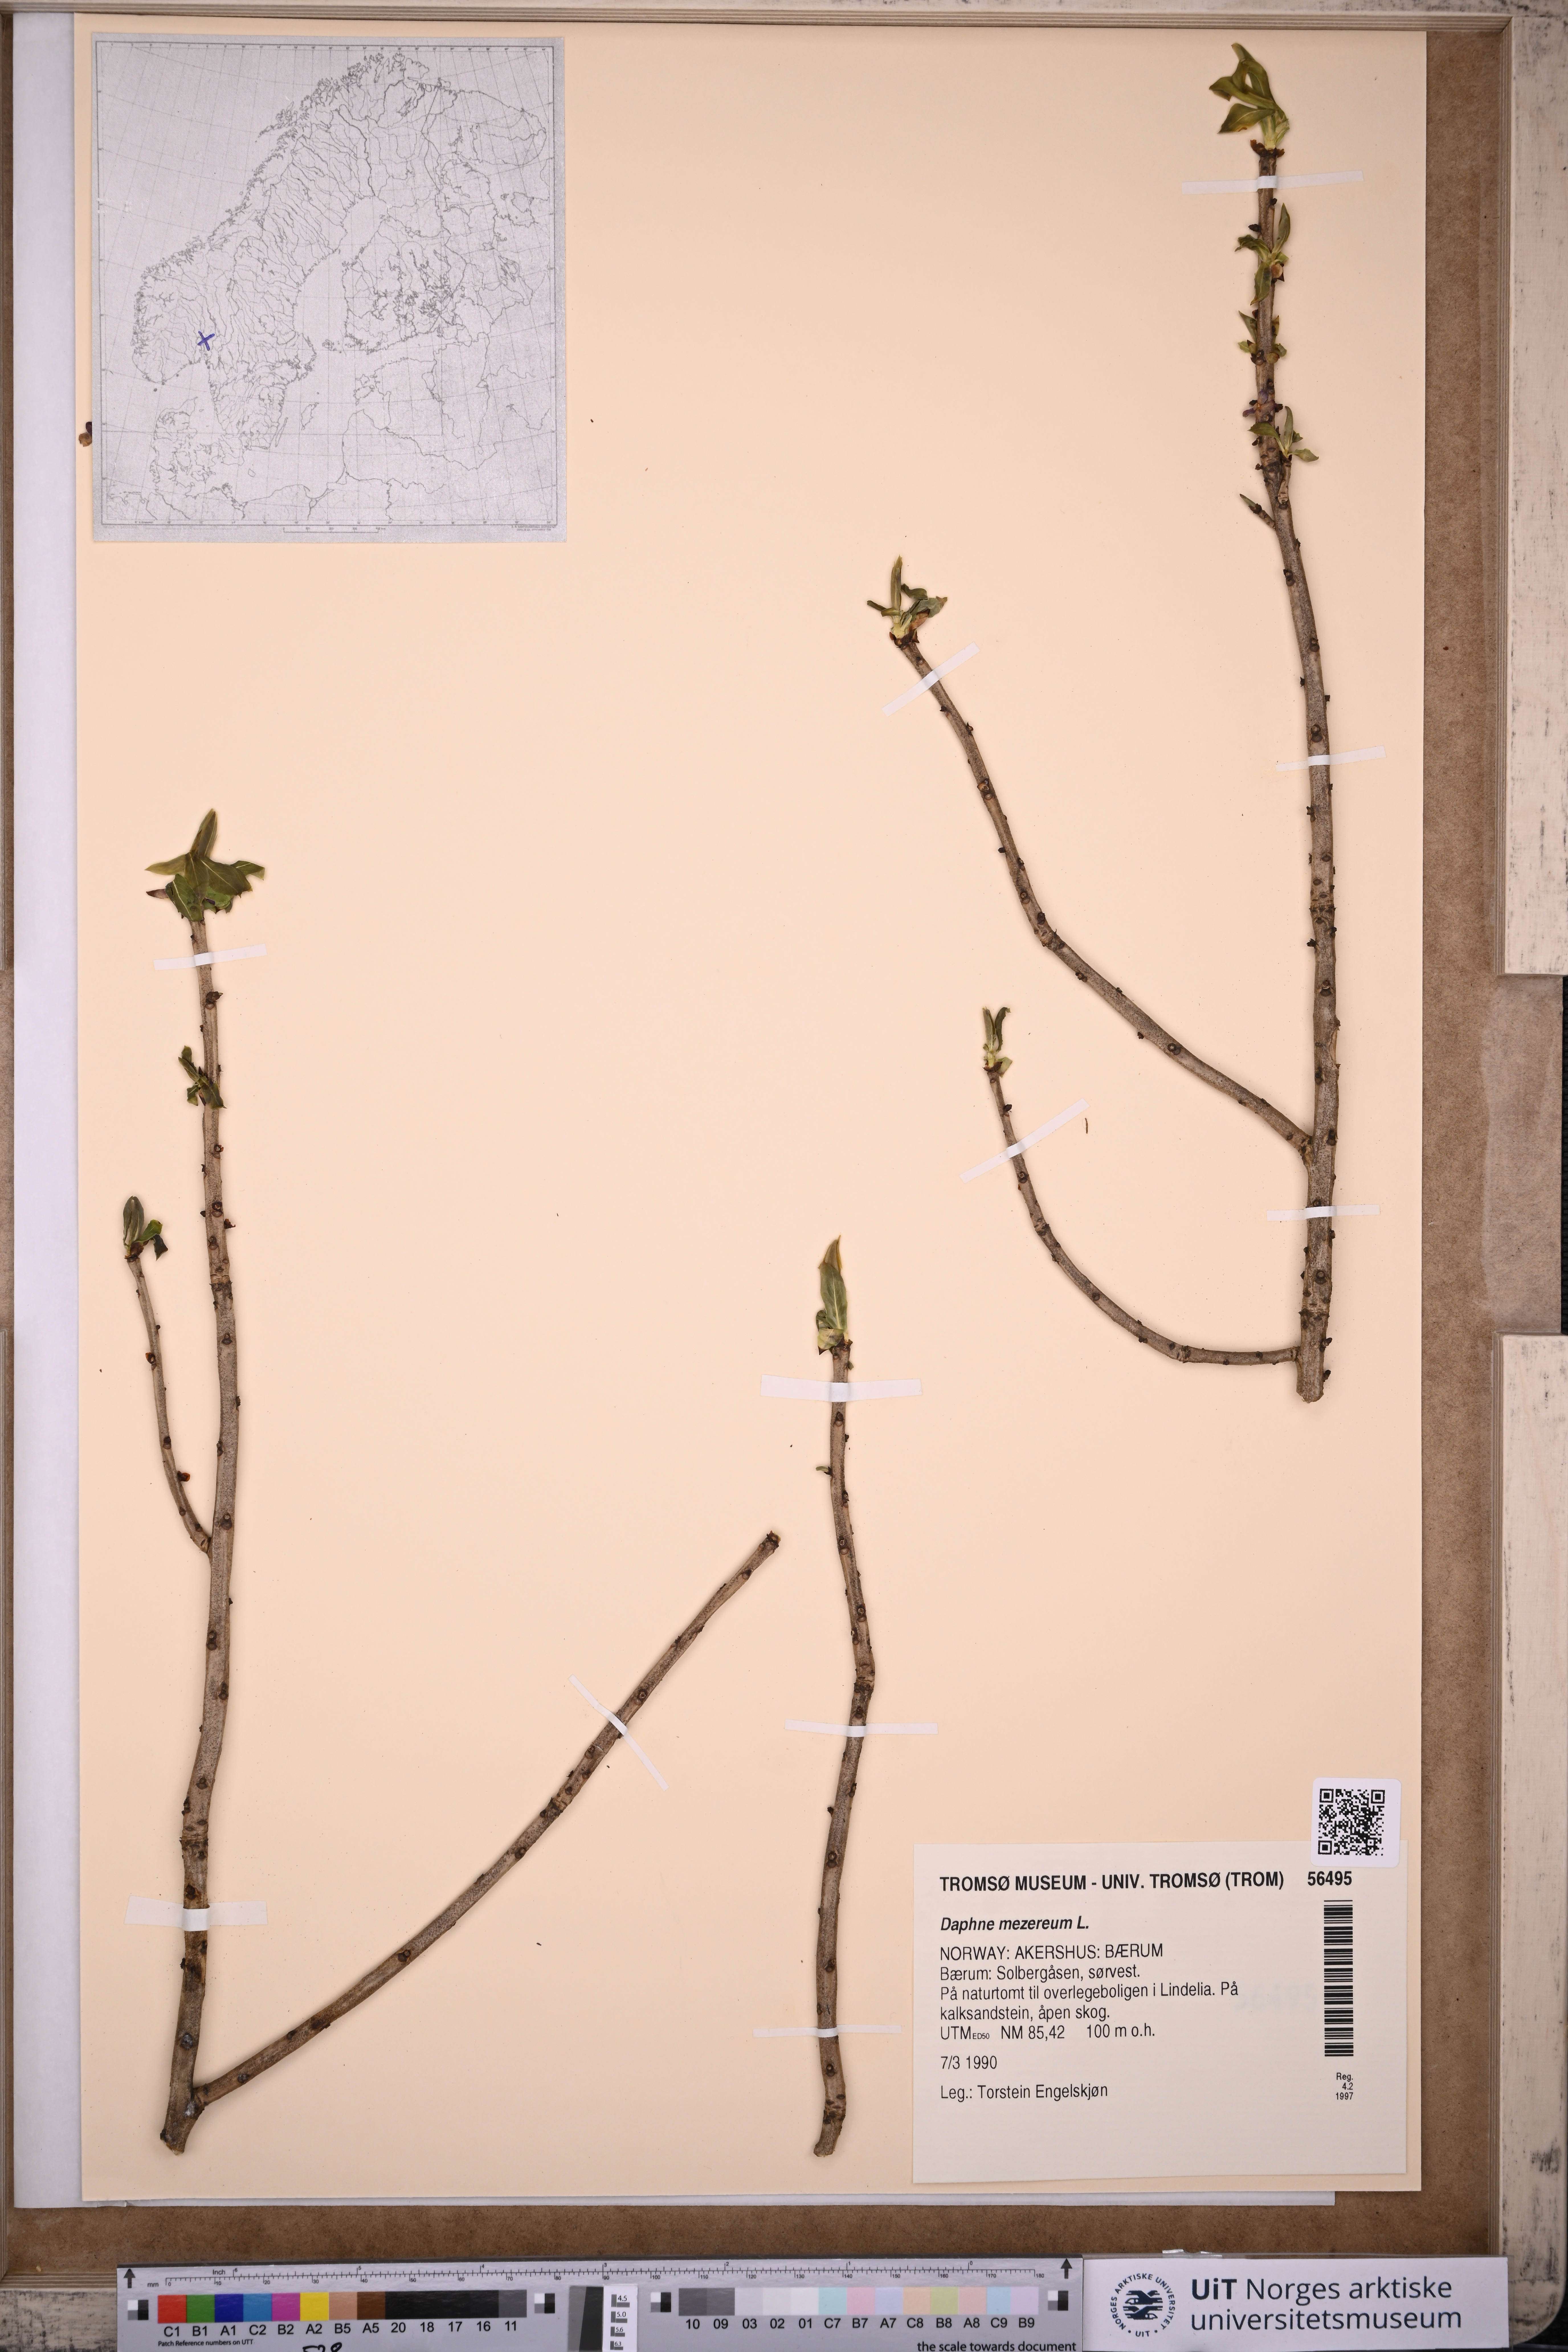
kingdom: Plantae
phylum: Tracheophyta
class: Magnoliopsida
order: Malvales
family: Thymelaeaceae
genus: Daphne
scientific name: Daphne mezereum
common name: Mezereon
